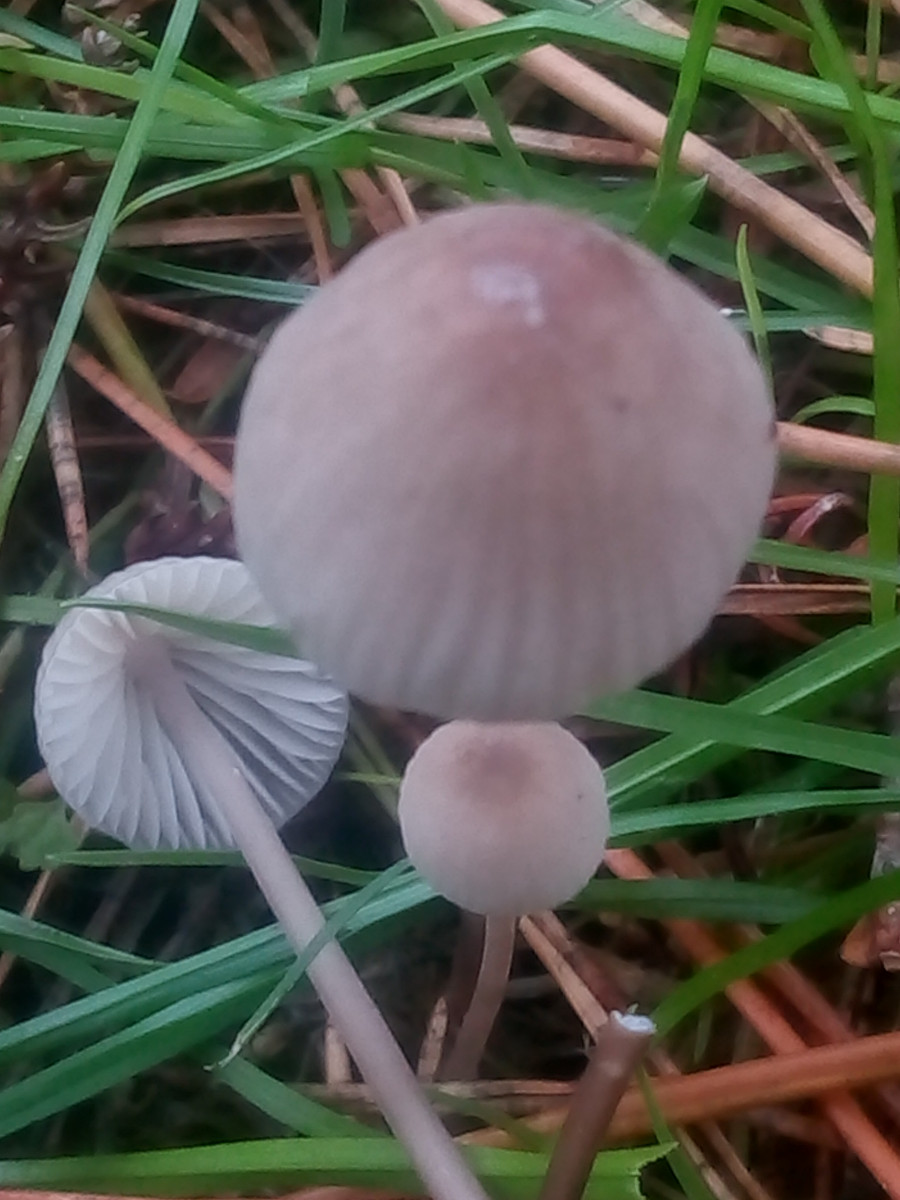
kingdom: Fungi
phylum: Basidiomycota
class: Agaricomycetes
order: Agaricales
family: Mycenaceae
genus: Mycena
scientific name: Mycena galopus
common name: hvidmælket huesvamp
